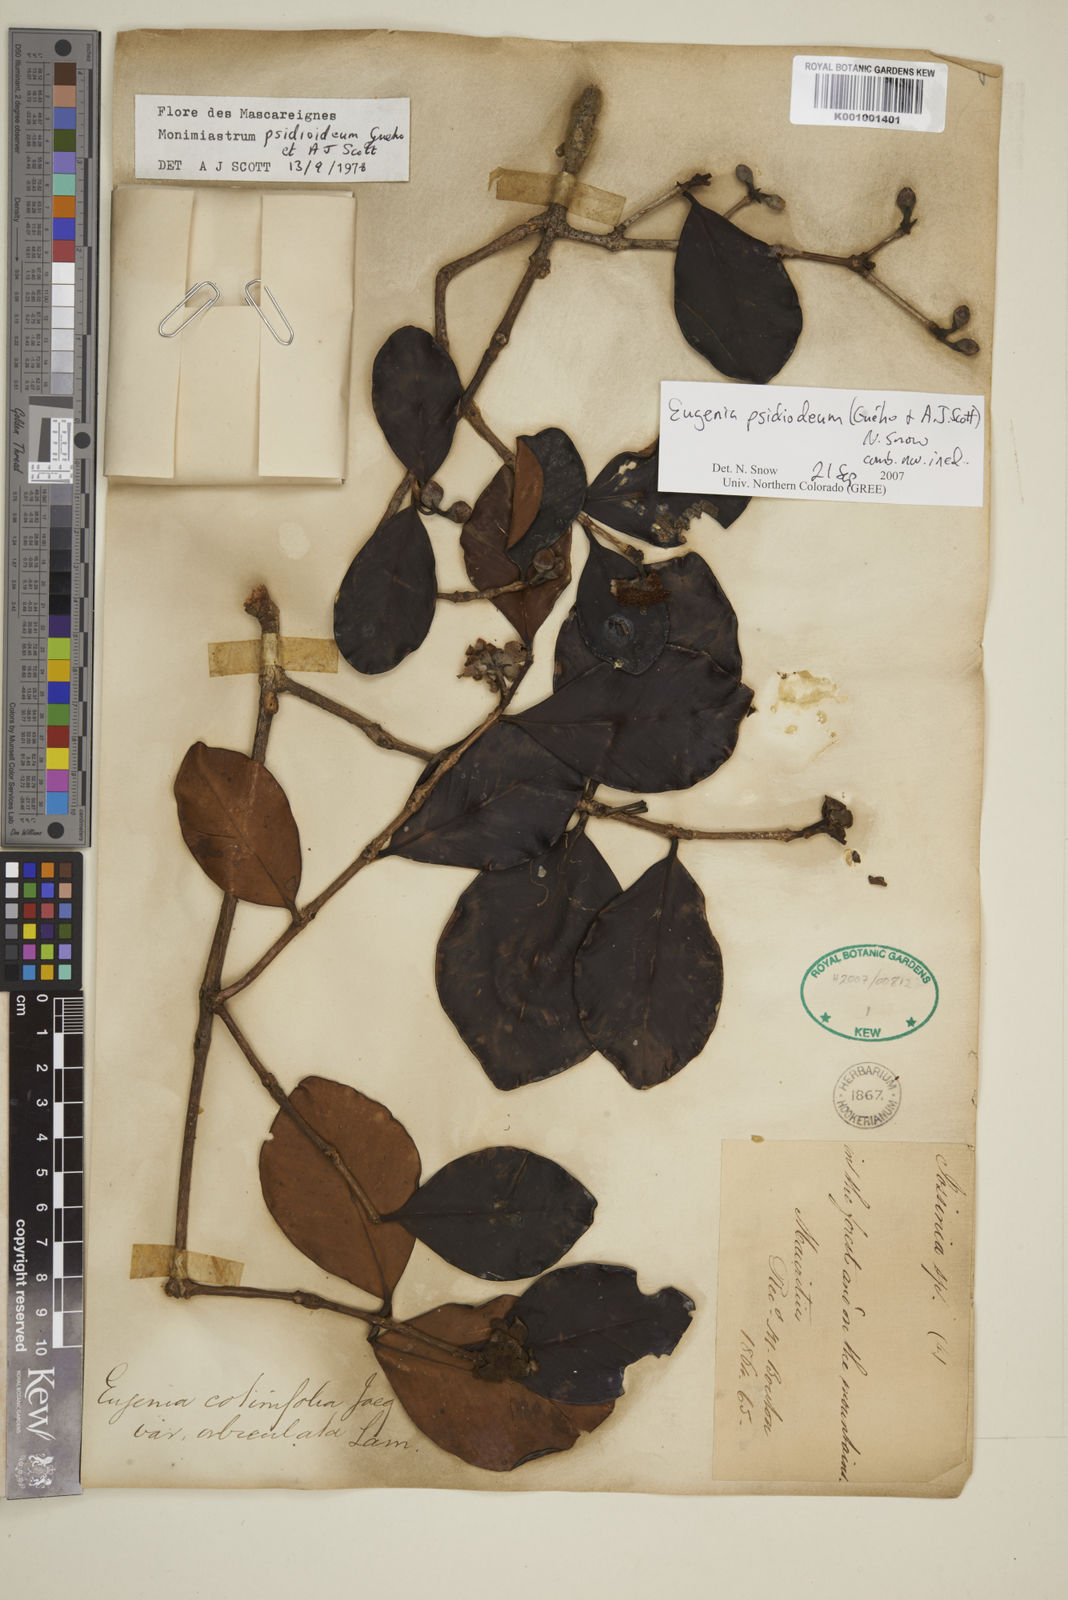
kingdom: Plantae
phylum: Tracheophyta
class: Magnoliopsida
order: Myrtales
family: Myrtaceae
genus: Eugenia
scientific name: Eugenia psidioidea
